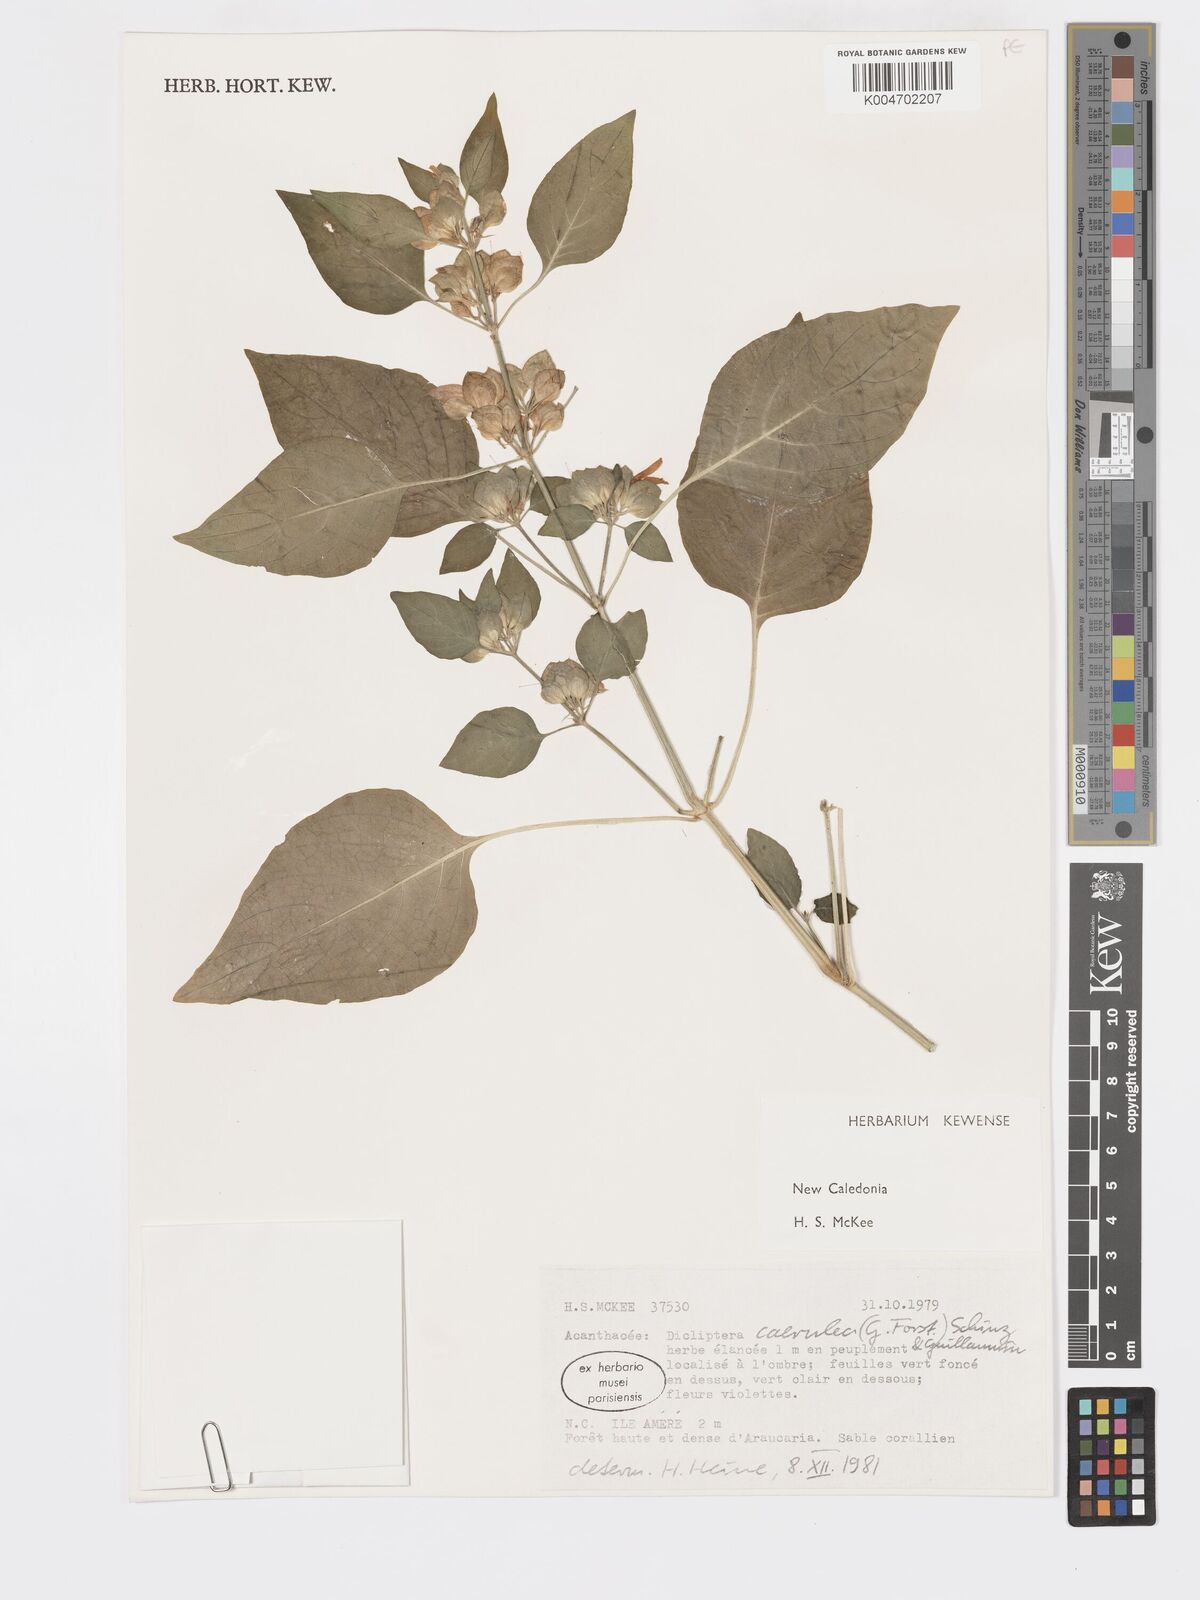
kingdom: Plantae
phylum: Tracheophyta
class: Magnoliopsida
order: Lamiales
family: Acanthaceae
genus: Rungia
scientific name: Rungia parviflora
